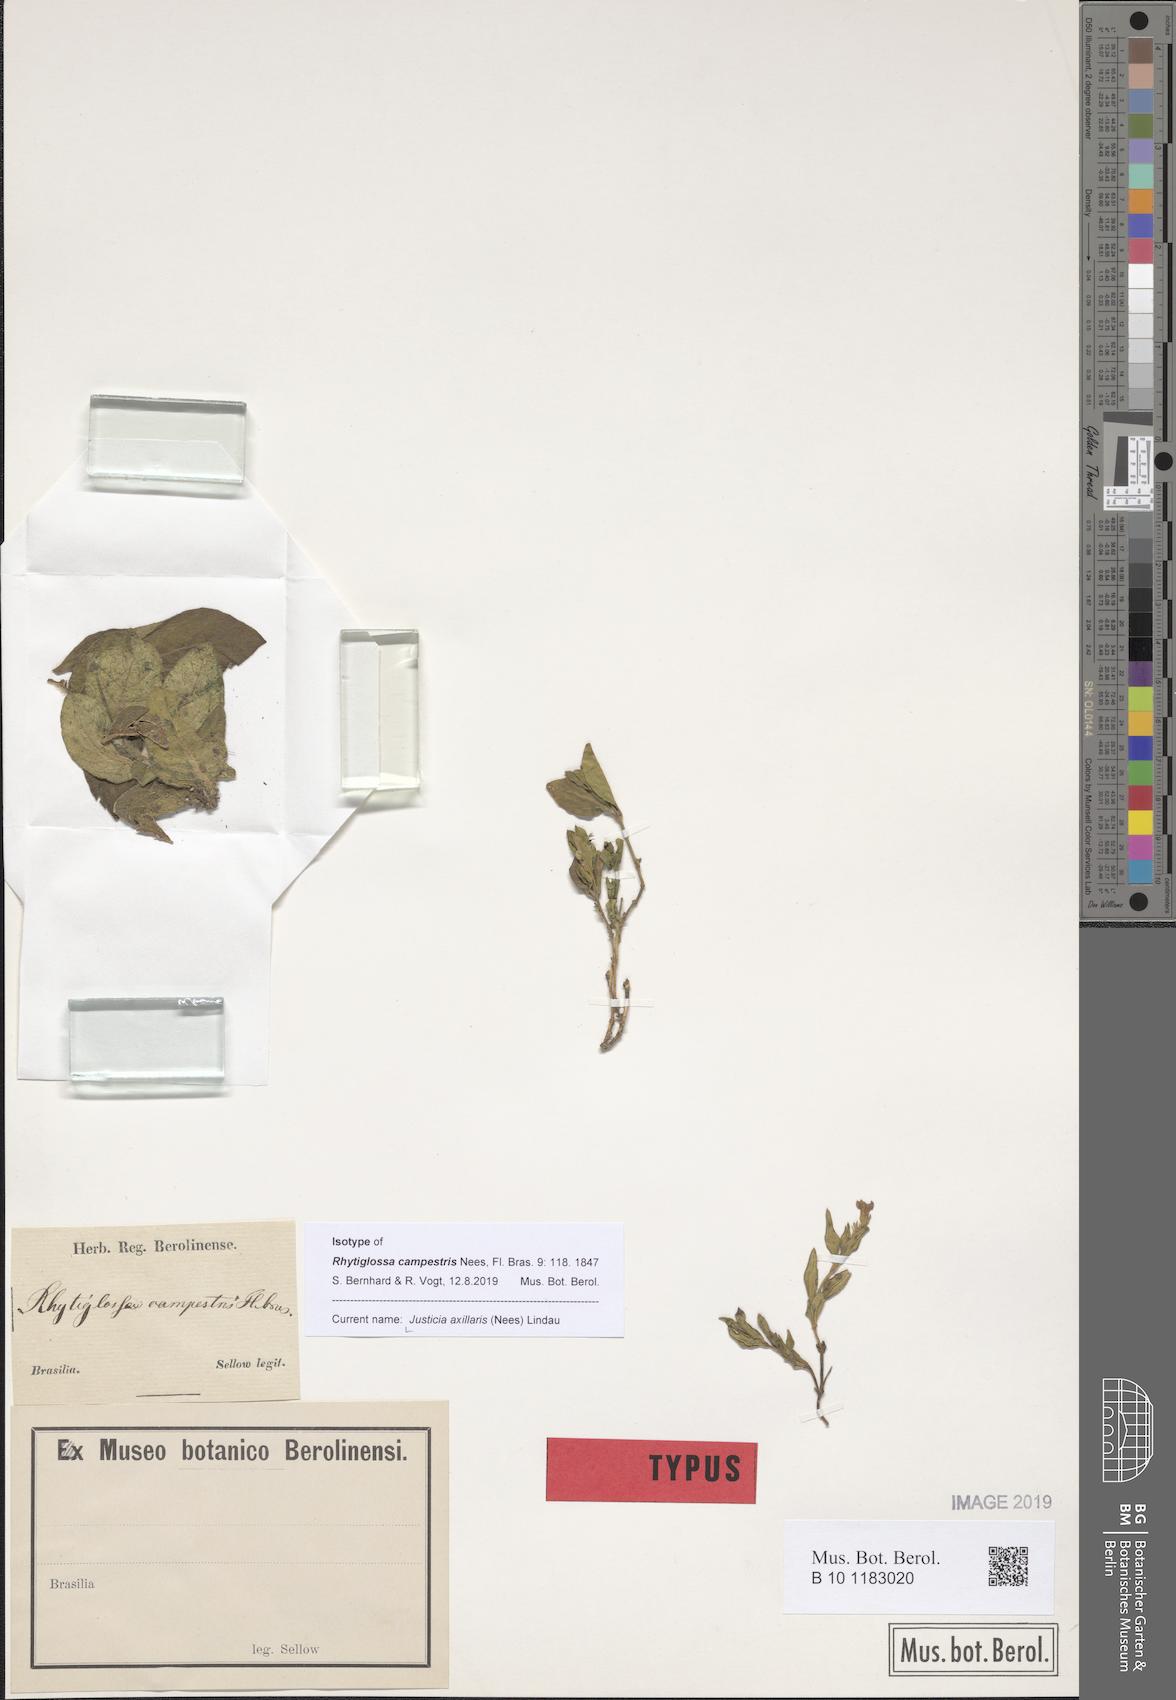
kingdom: Plantae
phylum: Tracheophyta
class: Magnoliopsida
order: Lamiales
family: Acanthaceae
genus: Justicia
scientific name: Justicia axillaris
